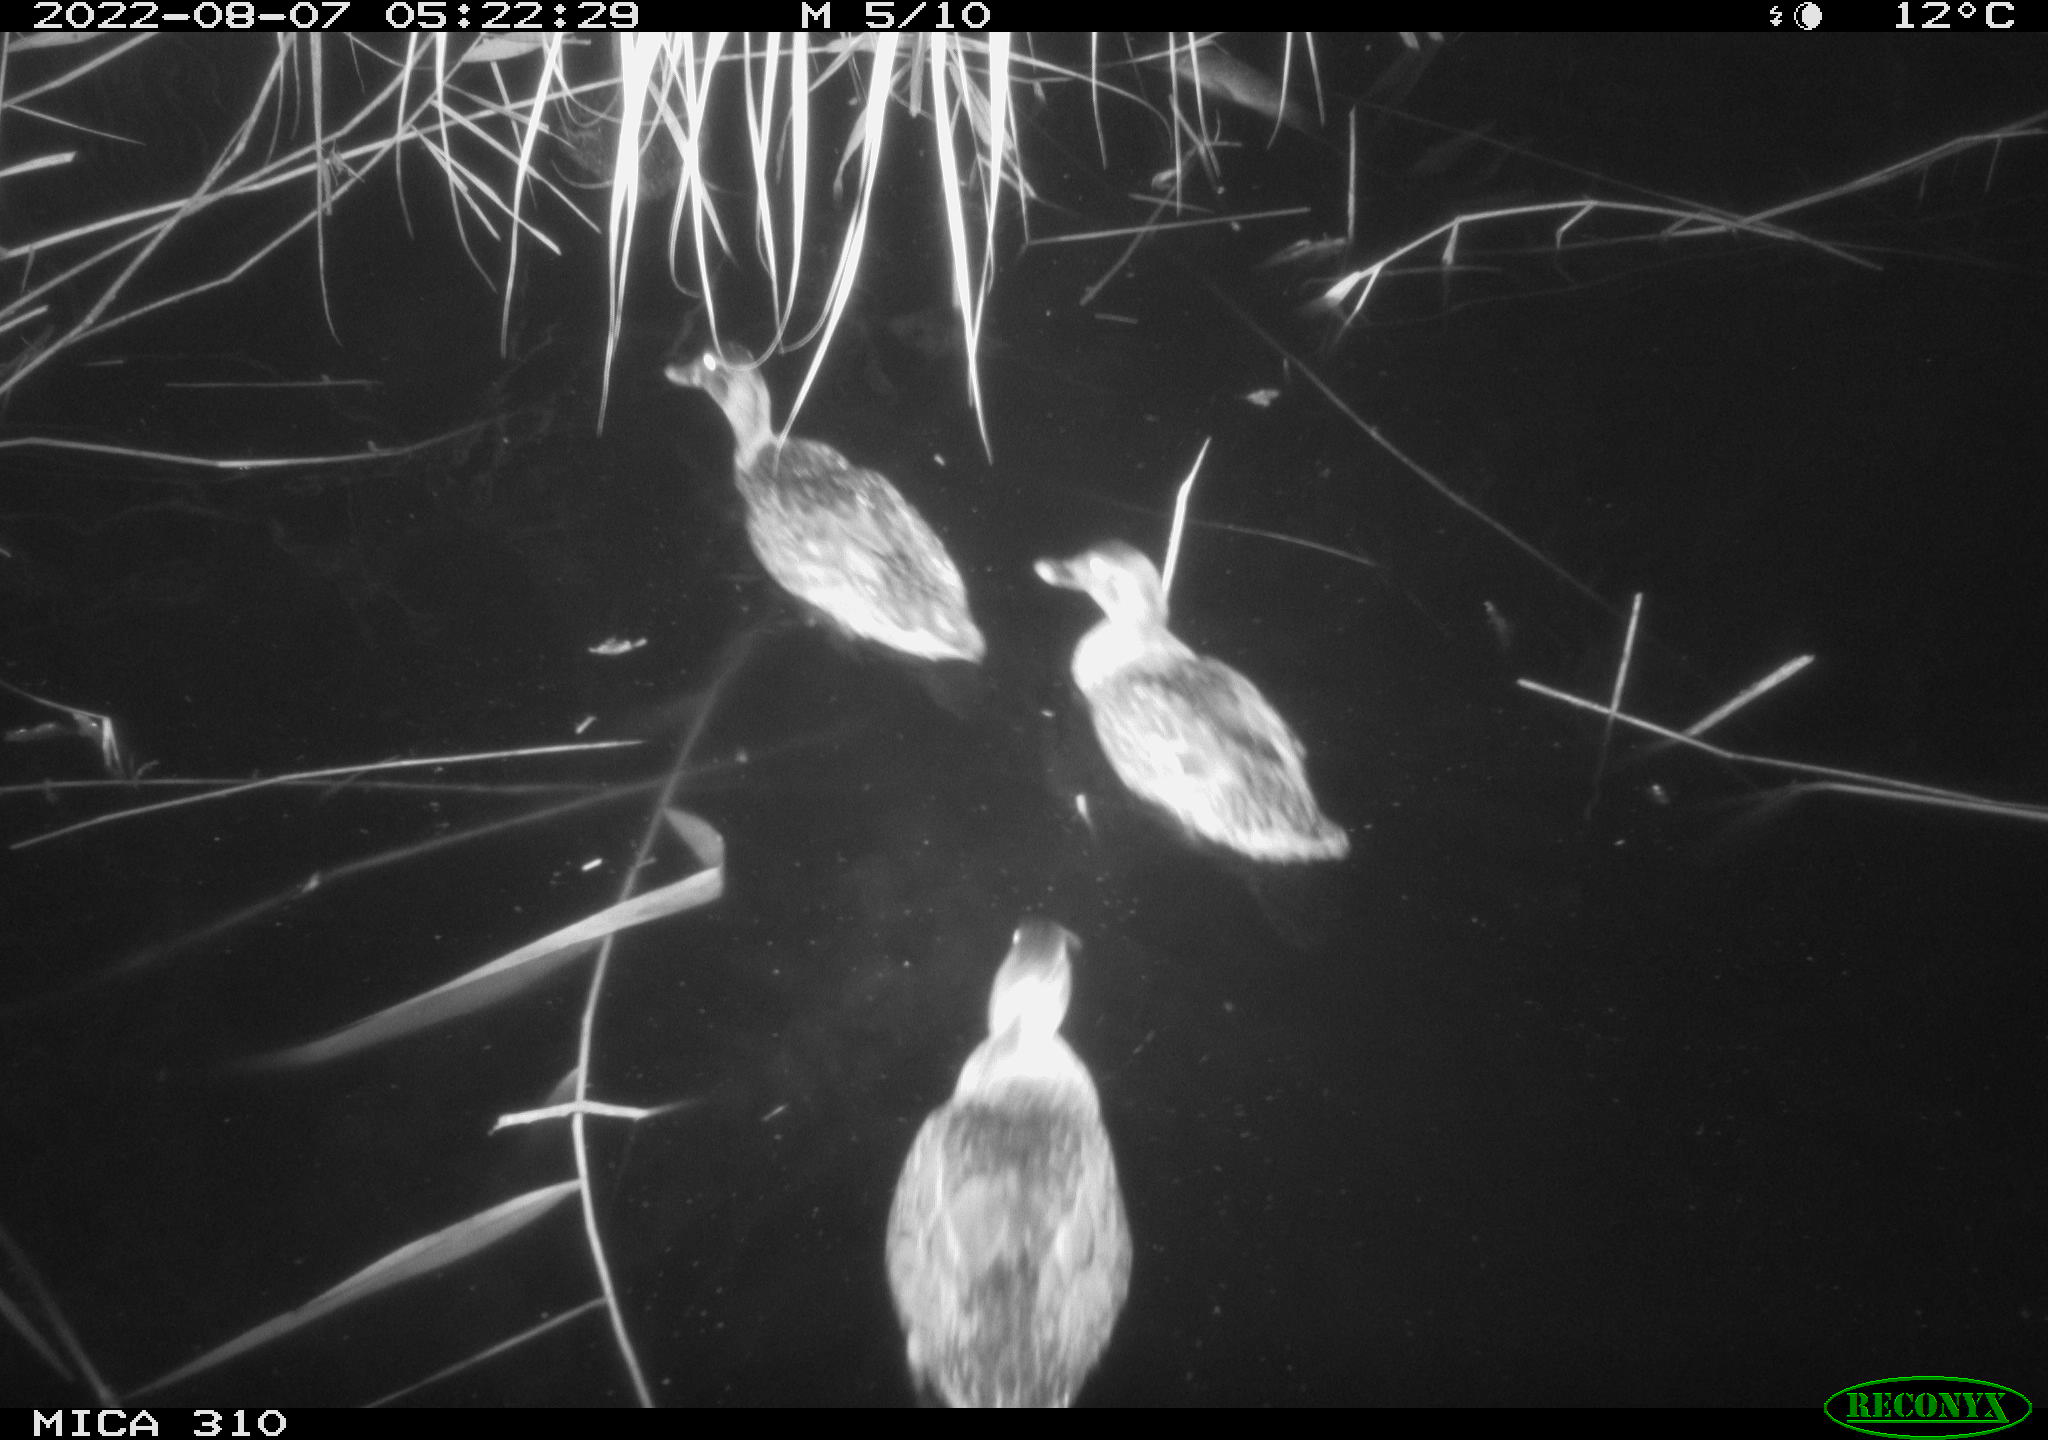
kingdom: Animalia
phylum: Chordata
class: Aves
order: Anseriformes
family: Anatidae
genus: Mareca
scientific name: Mareca strepera
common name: Gadwall
